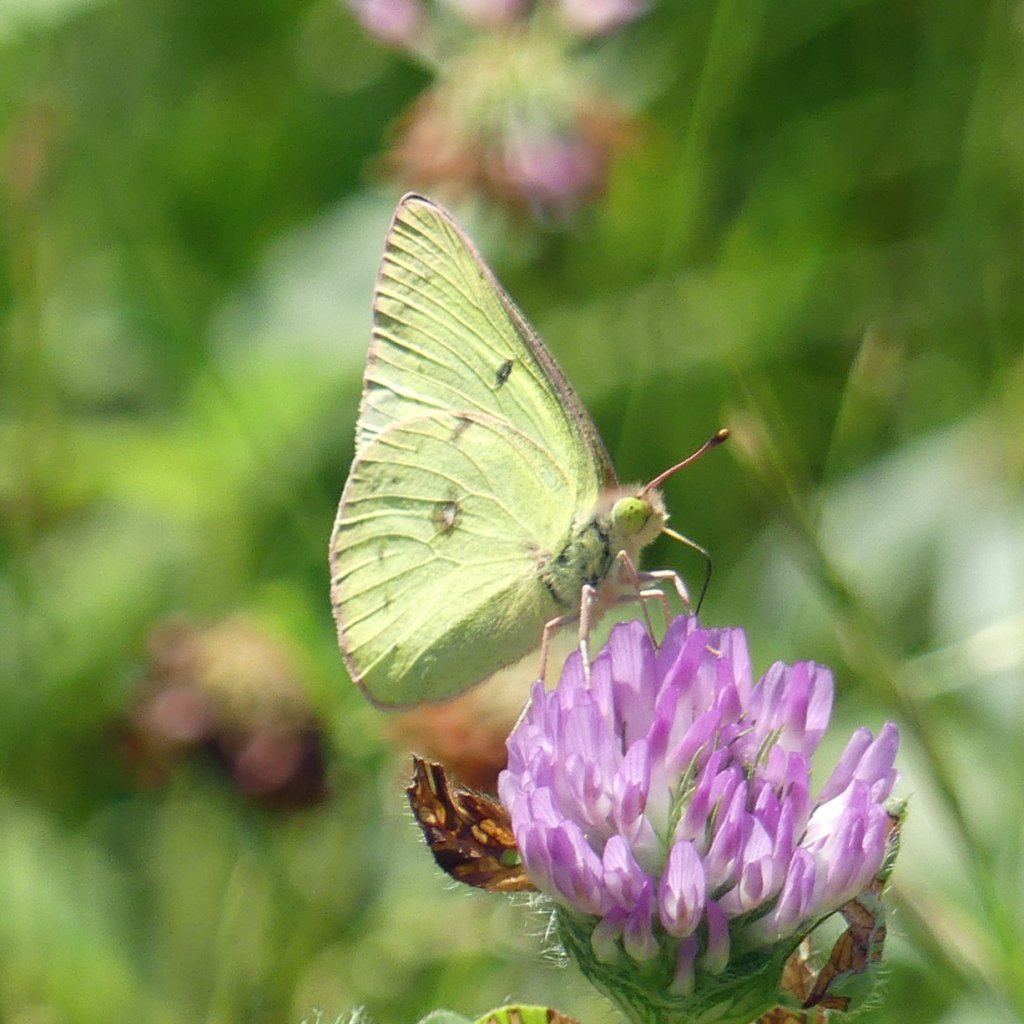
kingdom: Animalia
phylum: Arthropoda
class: Insecta
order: Lepidoptera
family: Pieridae
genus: Colias
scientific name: Colias philodice
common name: Clouded Sulphur
